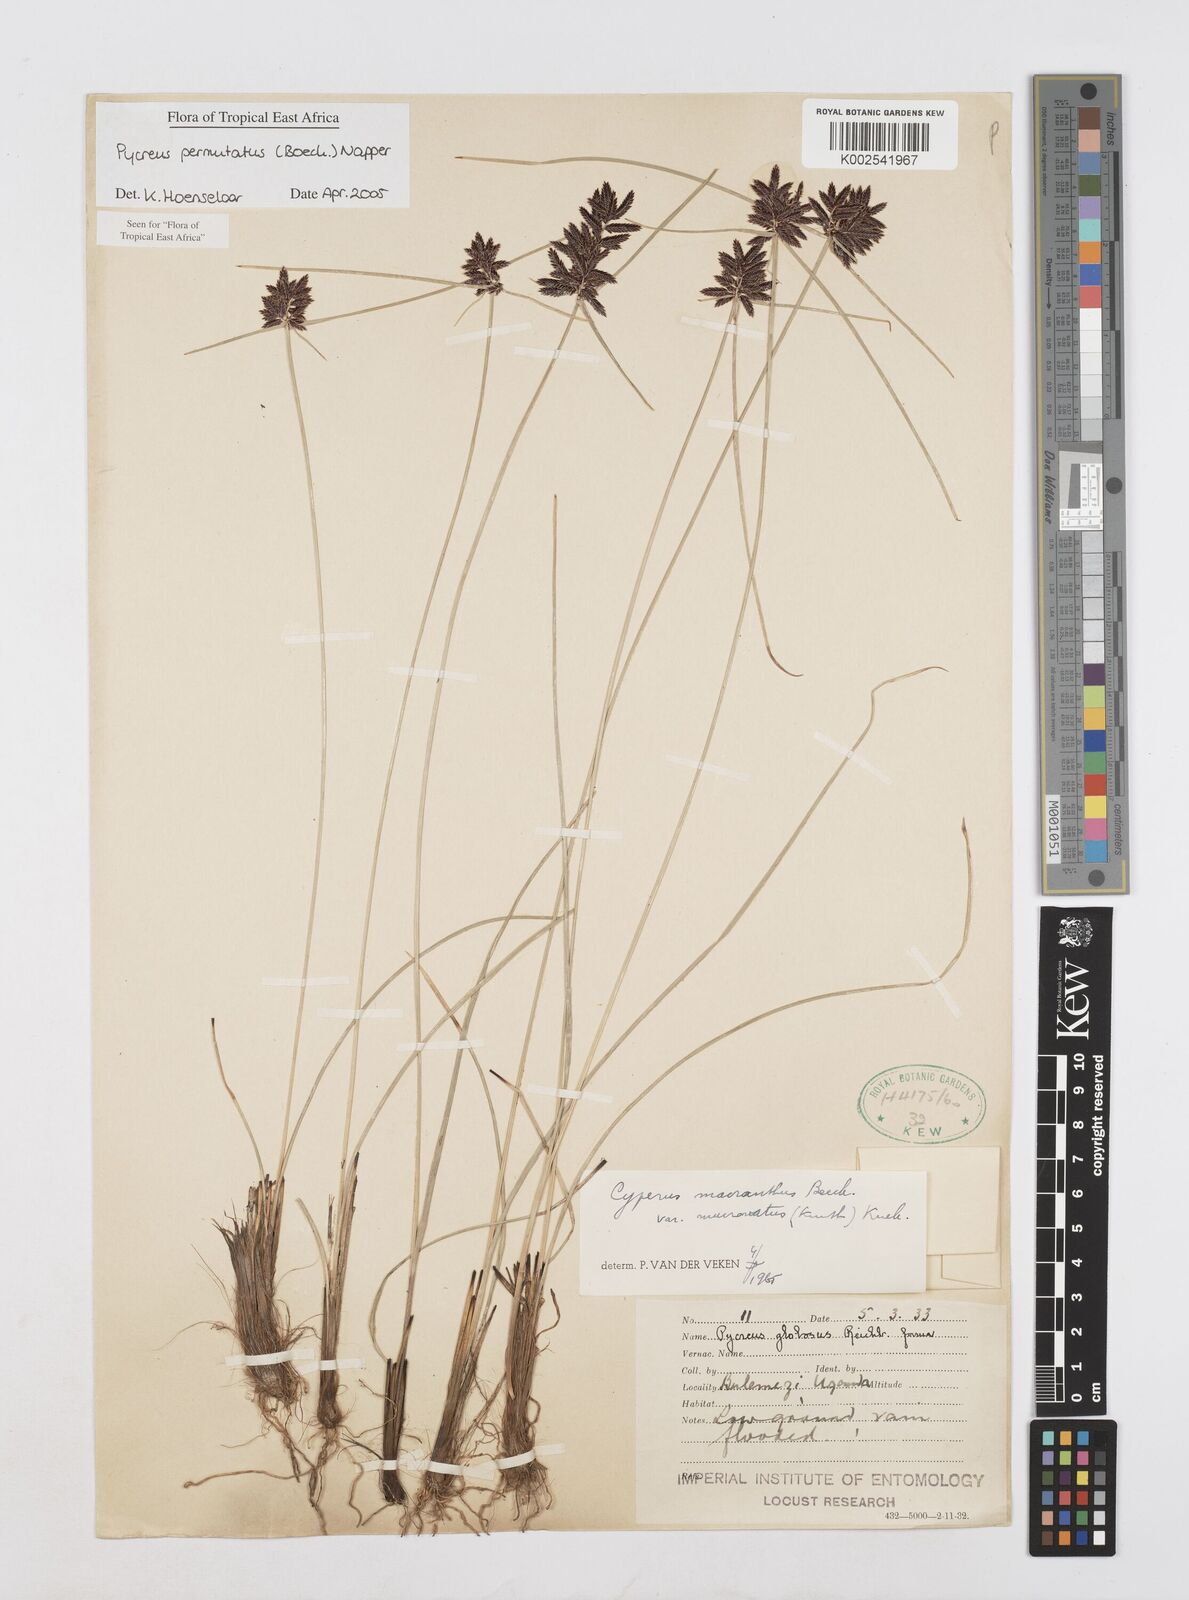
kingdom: Plantae
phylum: Tracheophyta
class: Liliopsida
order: Poales
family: Cyperaceae
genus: Cyperus
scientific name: Cyperus nigricans
